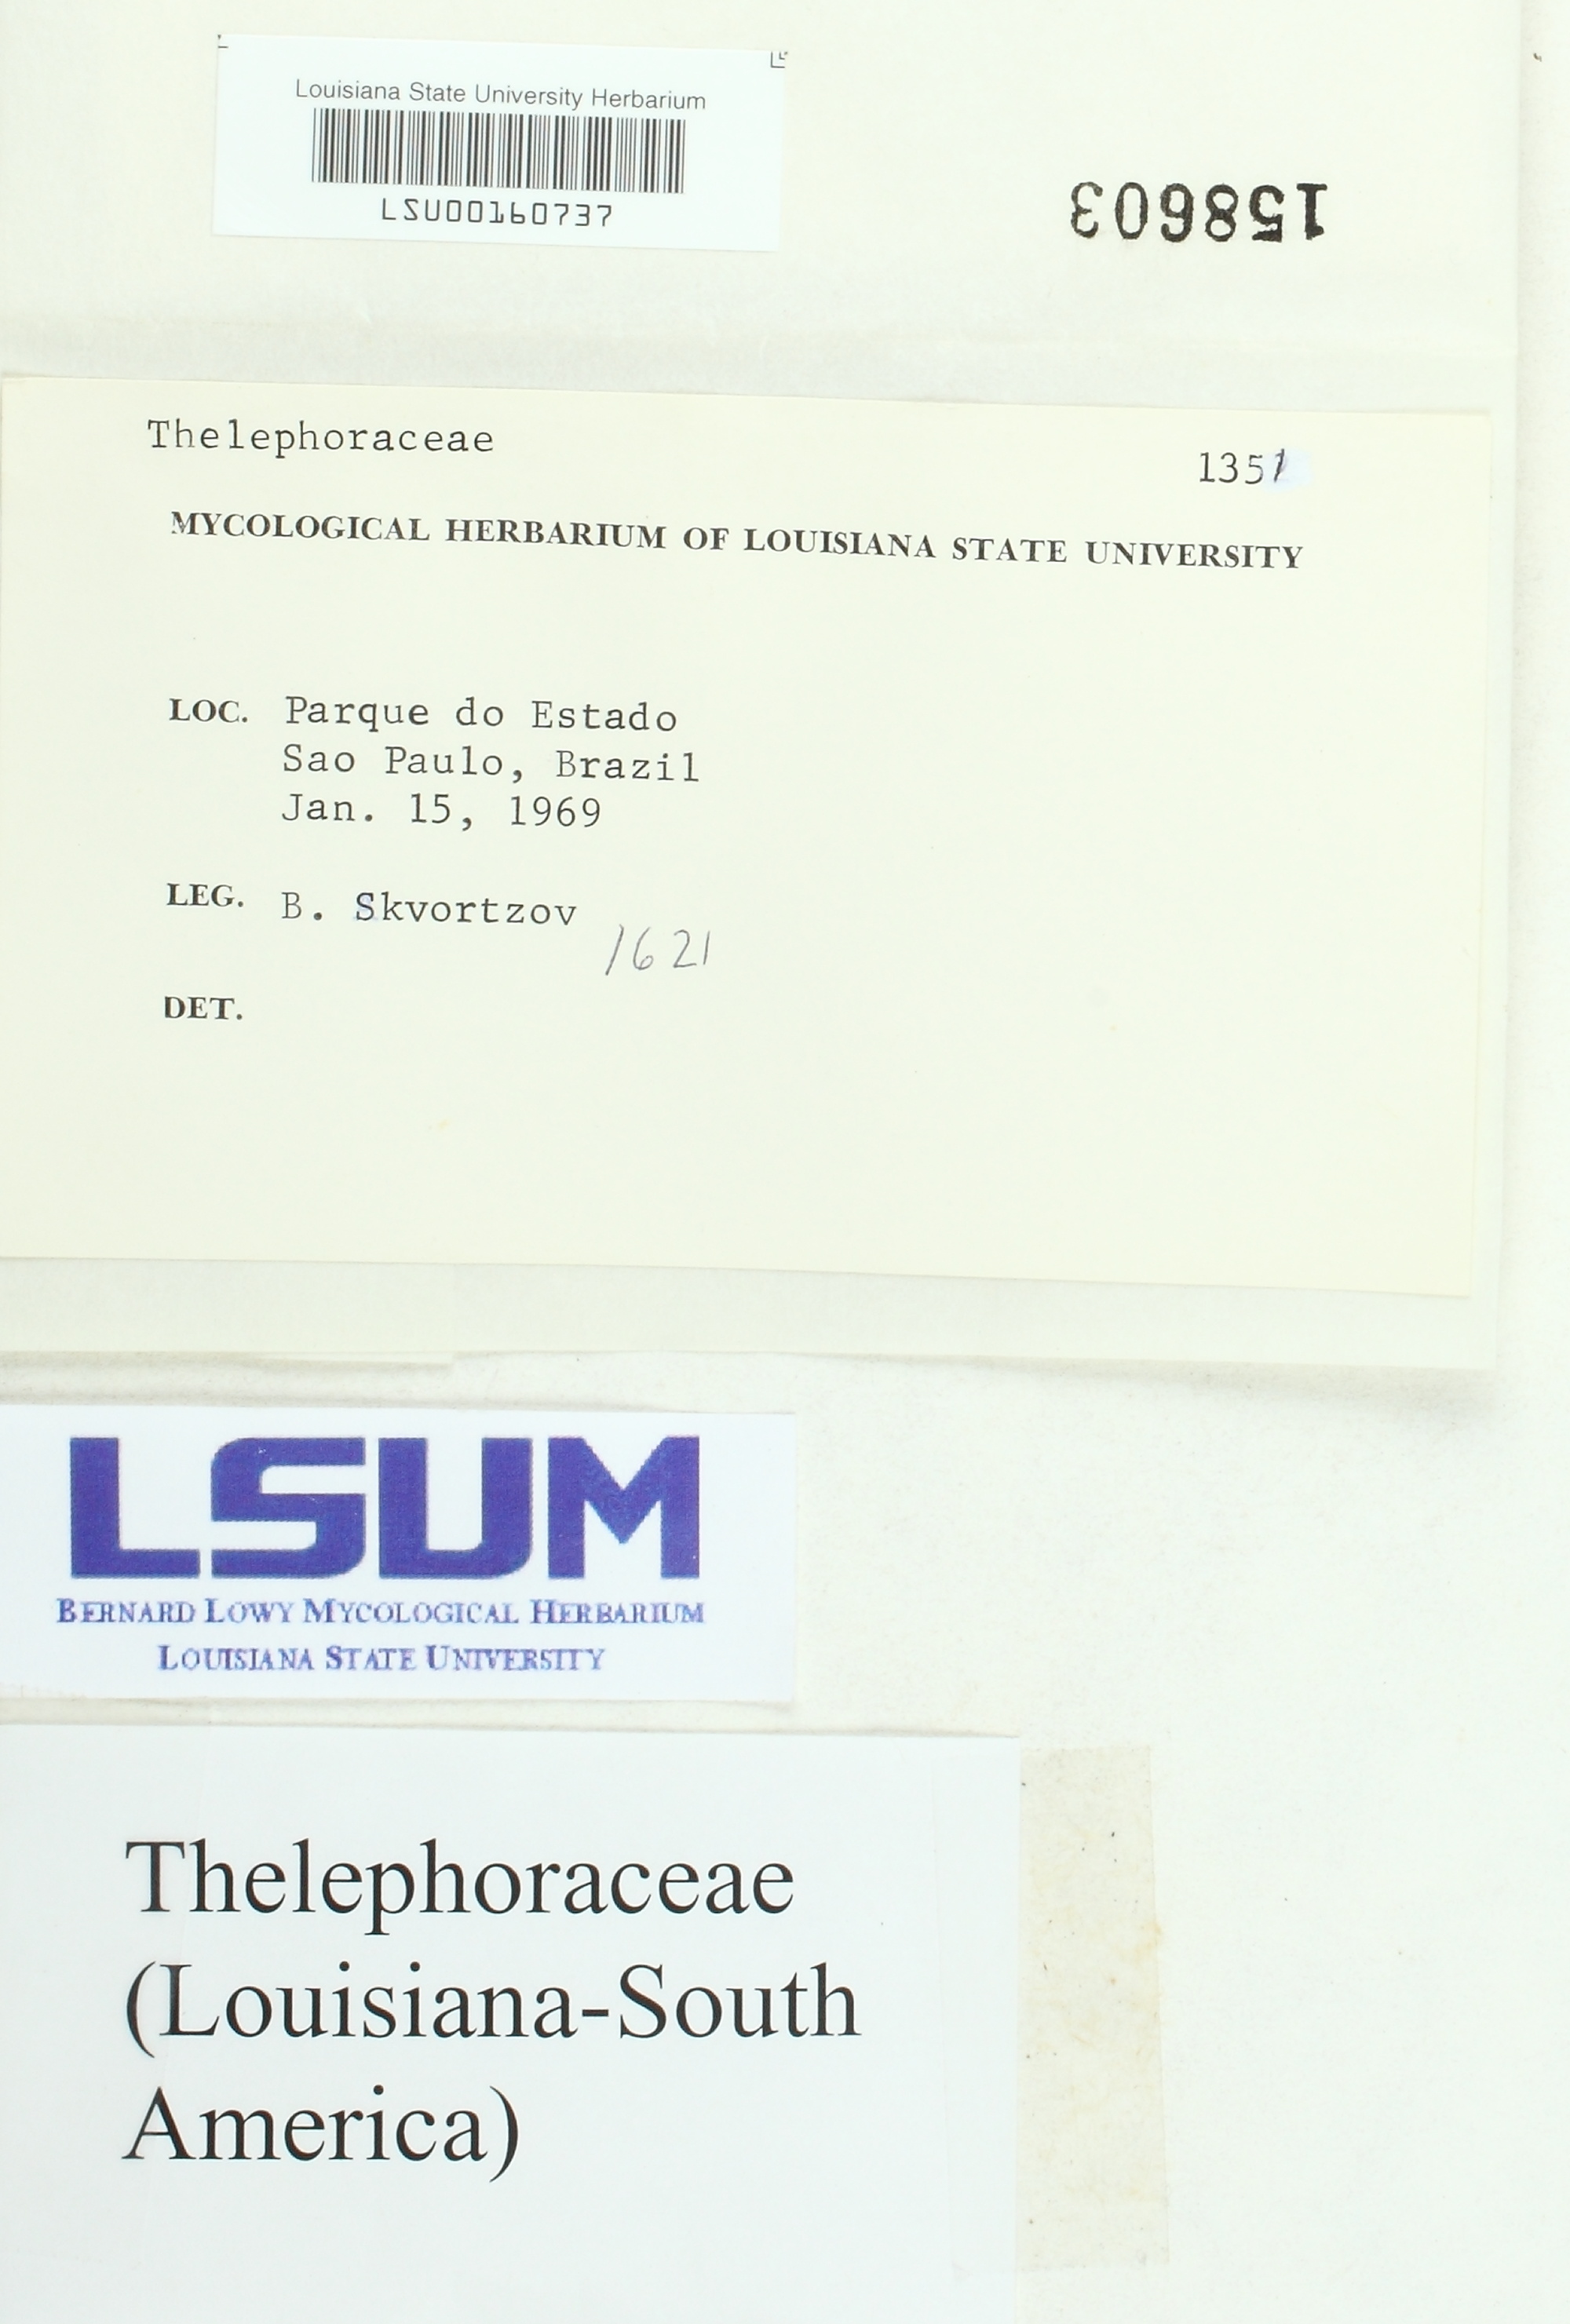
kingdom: Fungi
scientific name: Fungi
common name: Fungi
